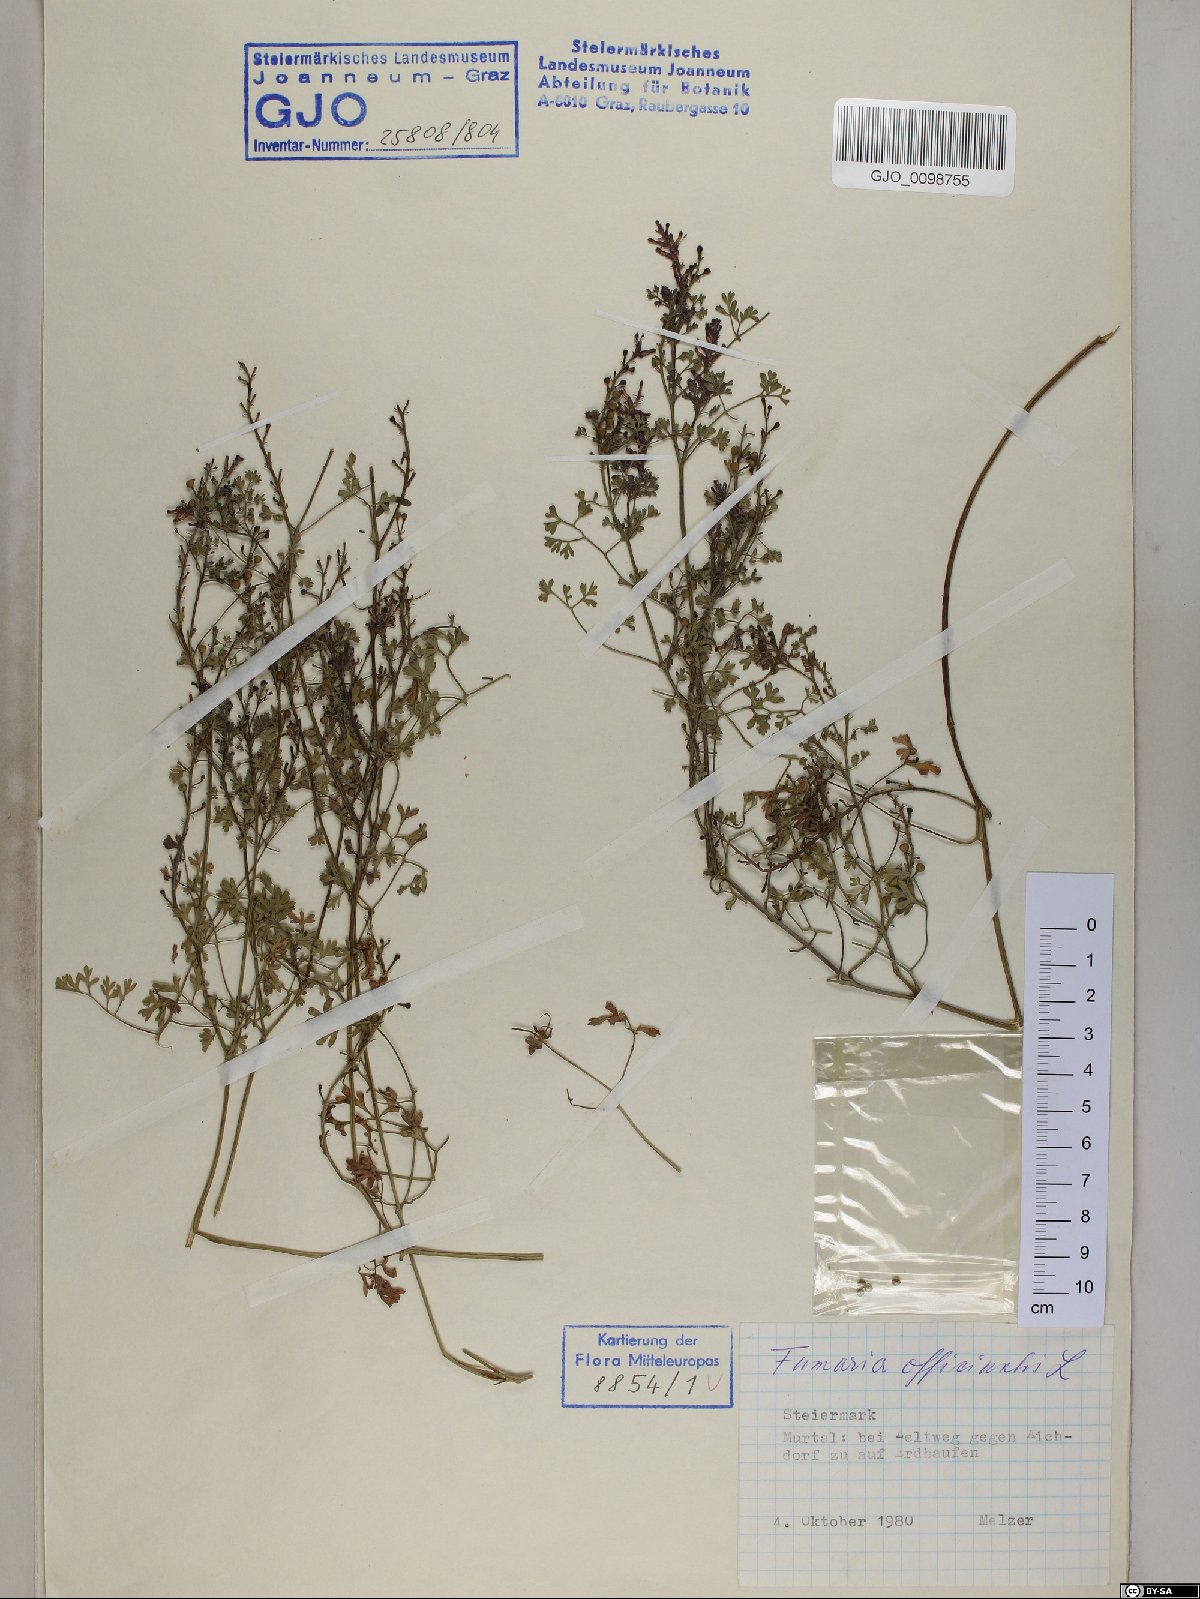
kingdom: Plantae
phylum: Tracheophyta
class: Magnoliopsida
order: Ranunculales
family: Papaveraceae
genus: Fumaria
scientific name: Fumaria officinalis
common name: Common fumitory
